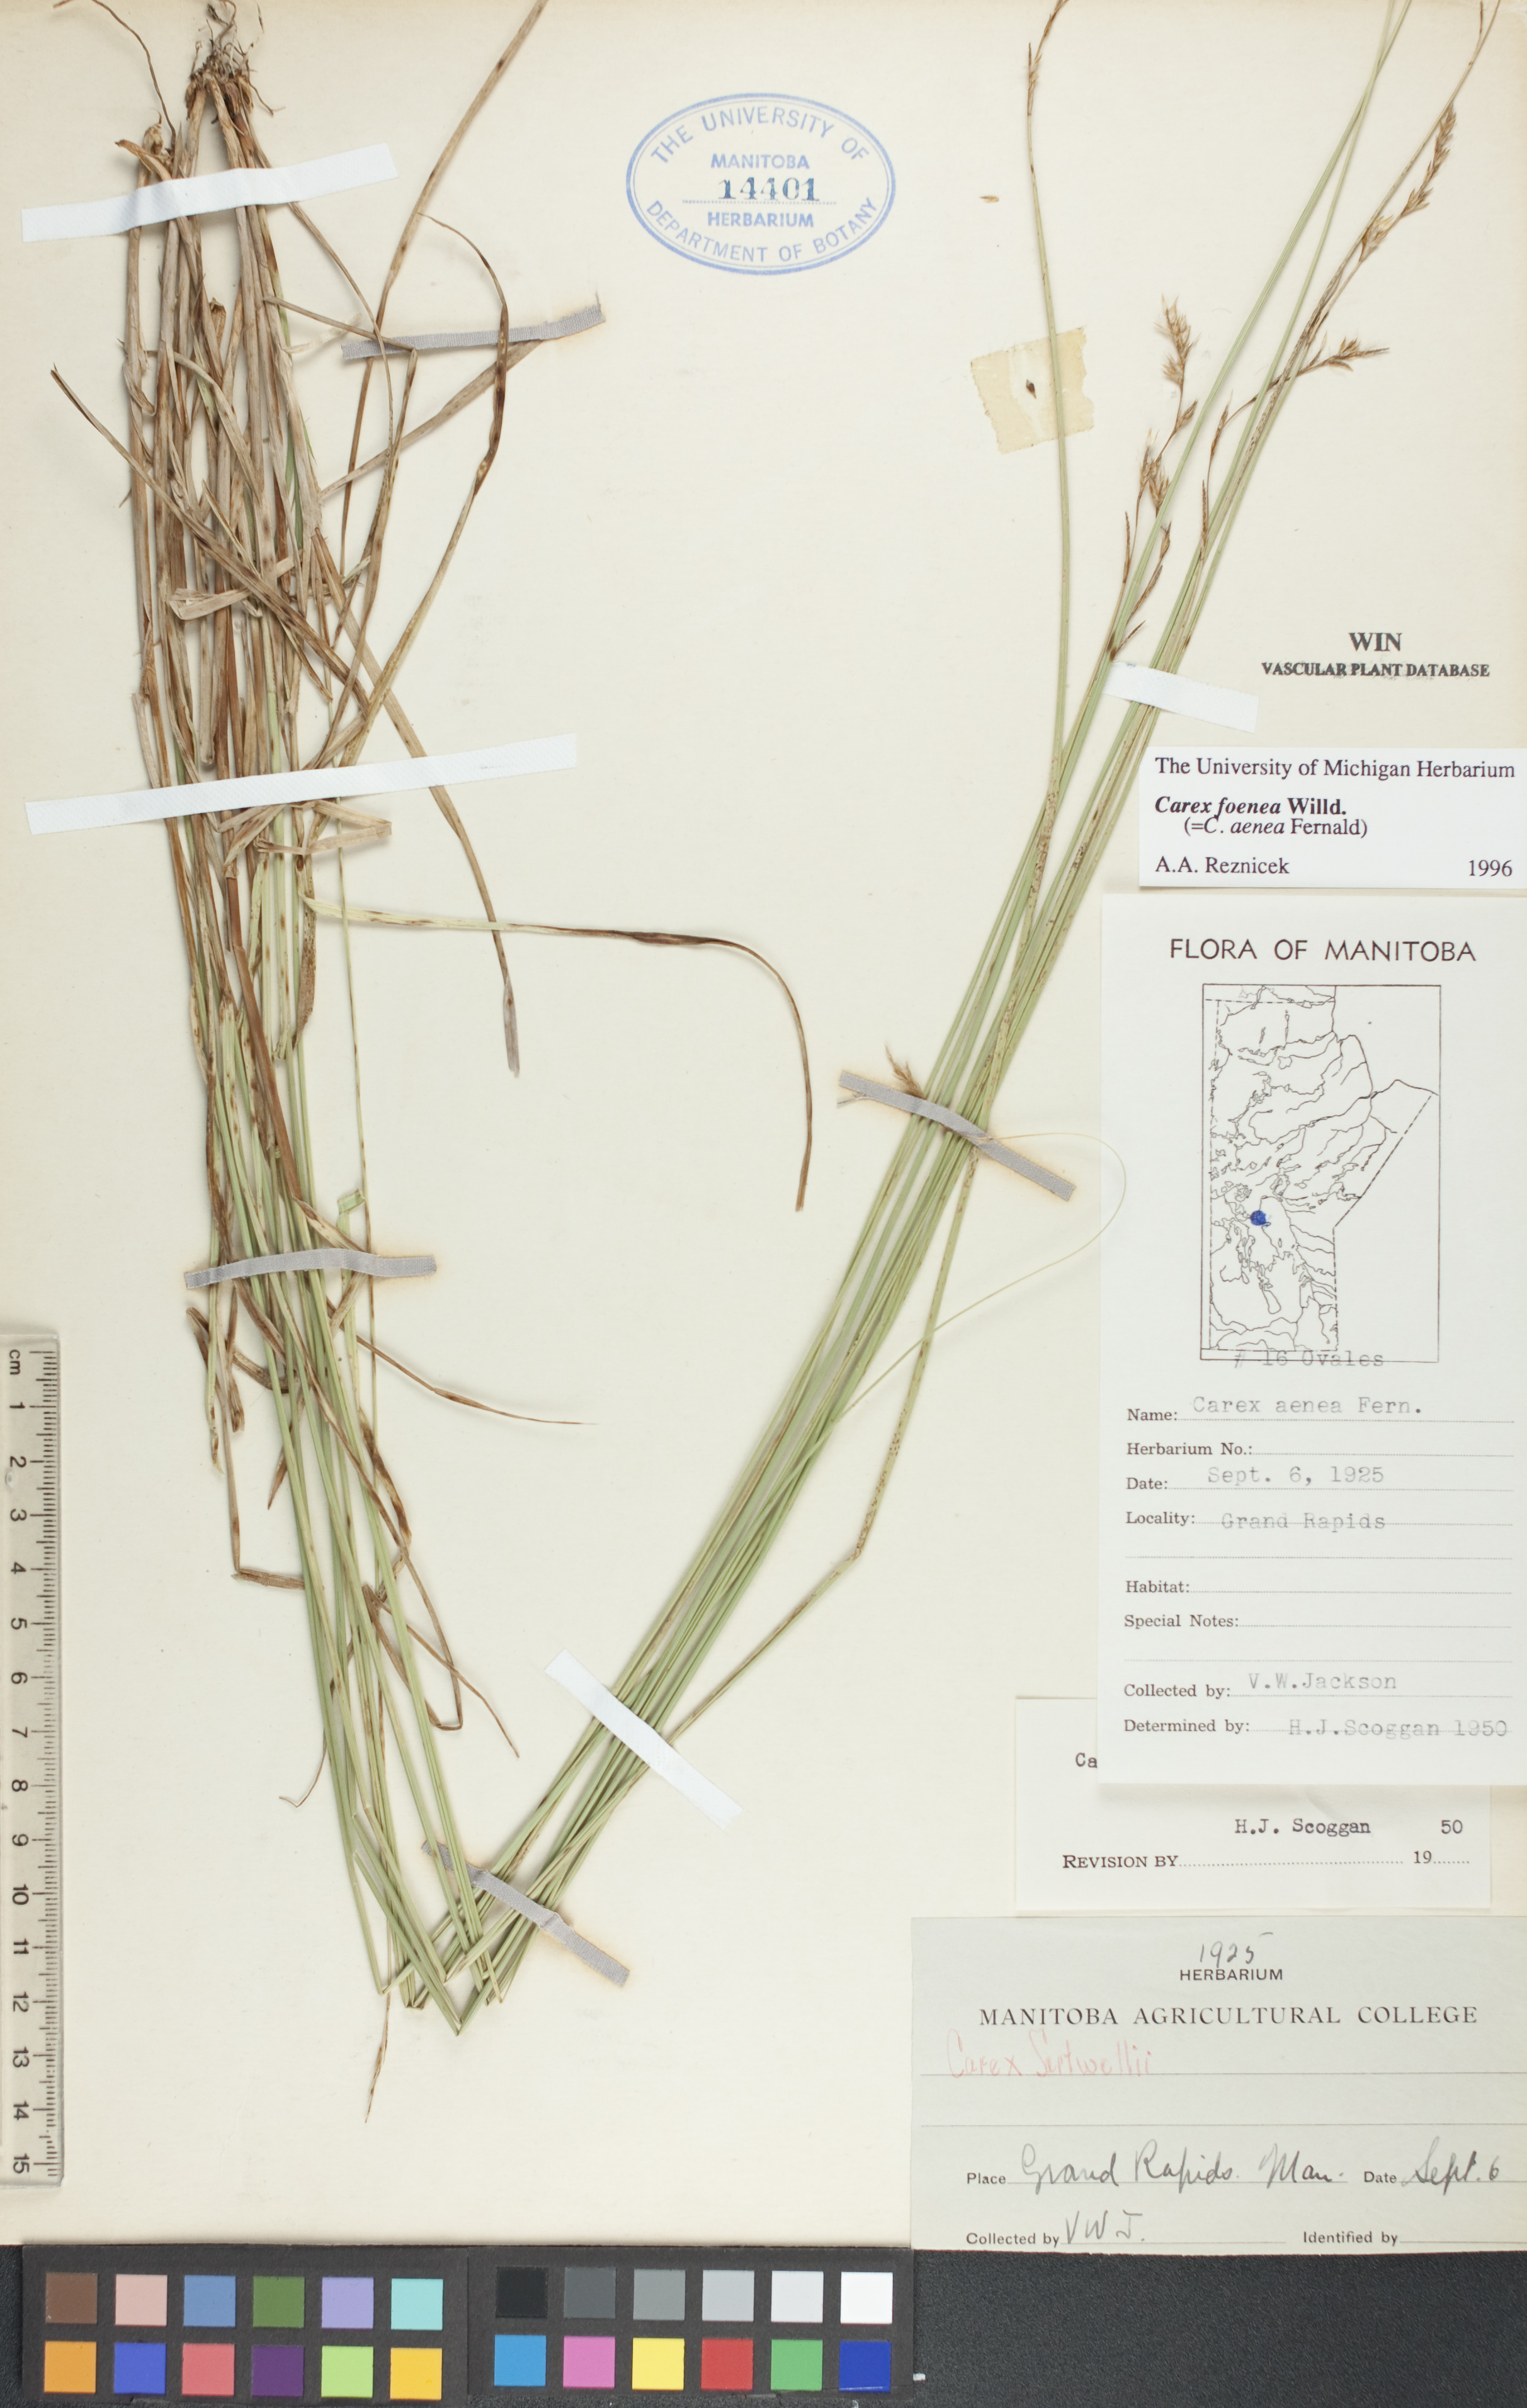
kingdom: Plantae
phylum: Tracheophyta
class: Liliopsida
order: Poales
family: Cyperaceae
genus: Carex
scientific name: Carex foenea
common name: Bronze sedge
